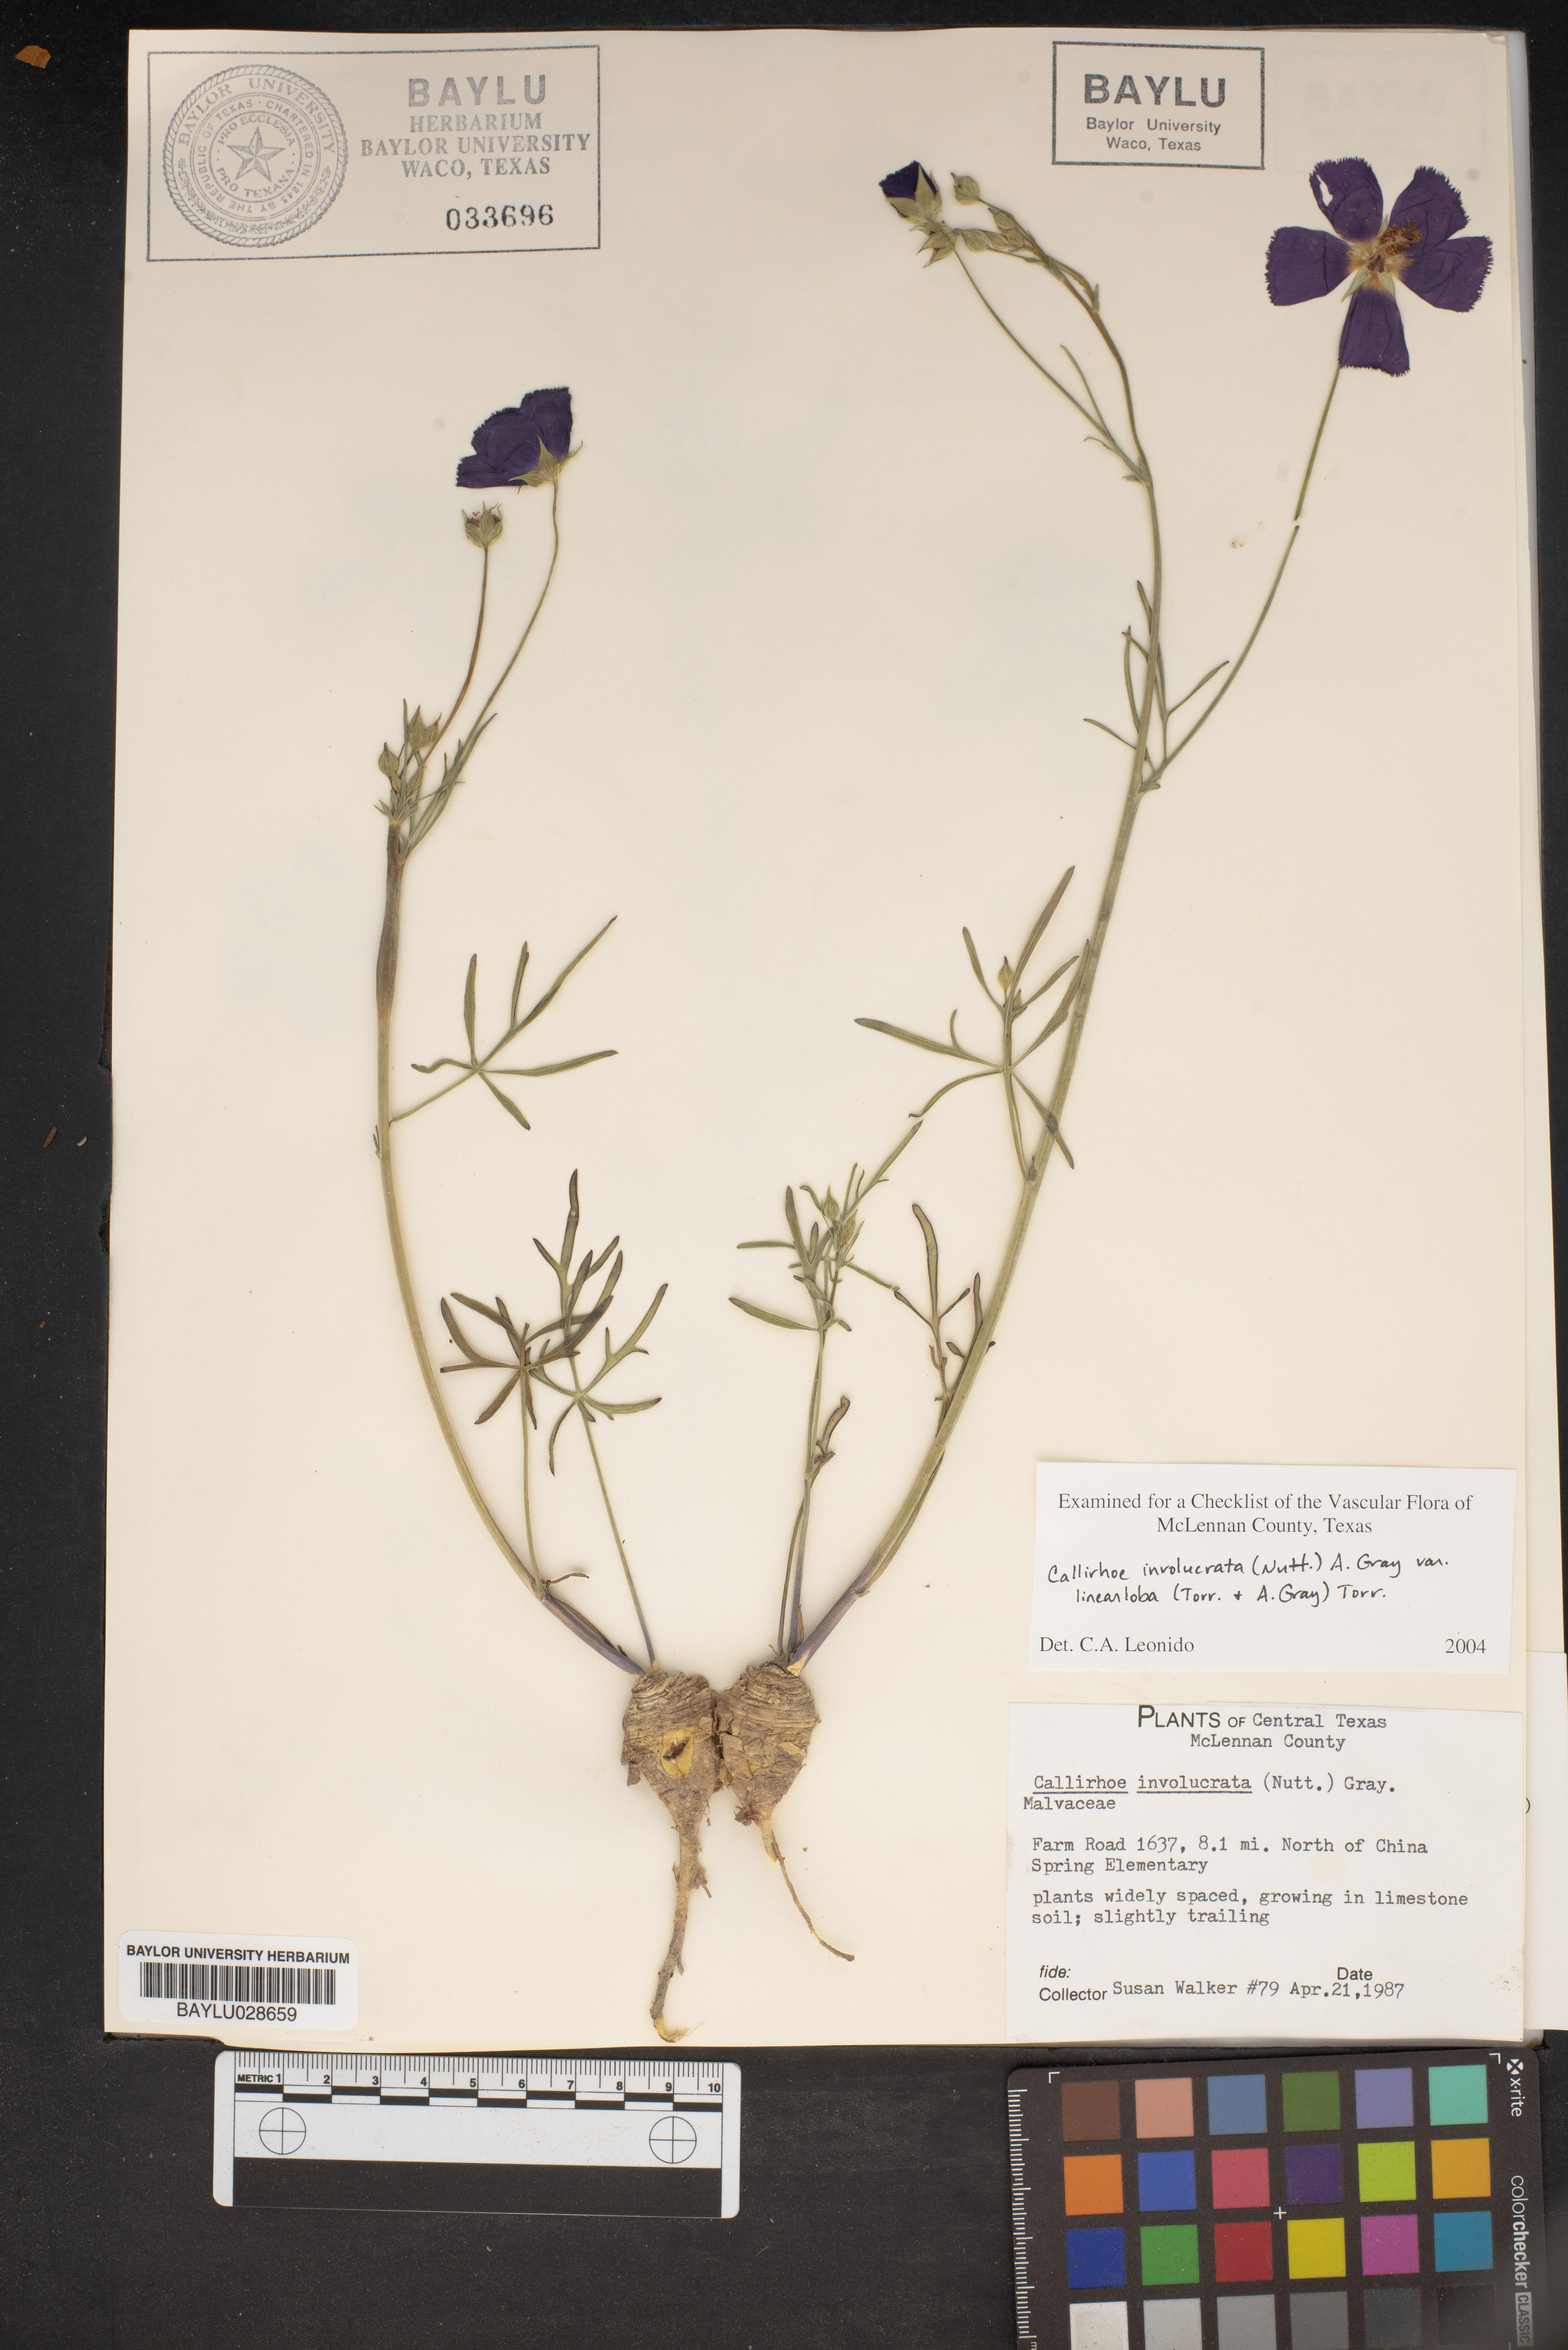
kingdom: Plantae
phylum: Tracheophyta
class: Magnoliopsida
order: Malvales
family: Malvaceae
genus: Callirhoe
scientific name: Callirhoe involucrata
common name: Purple poppy-mallow
